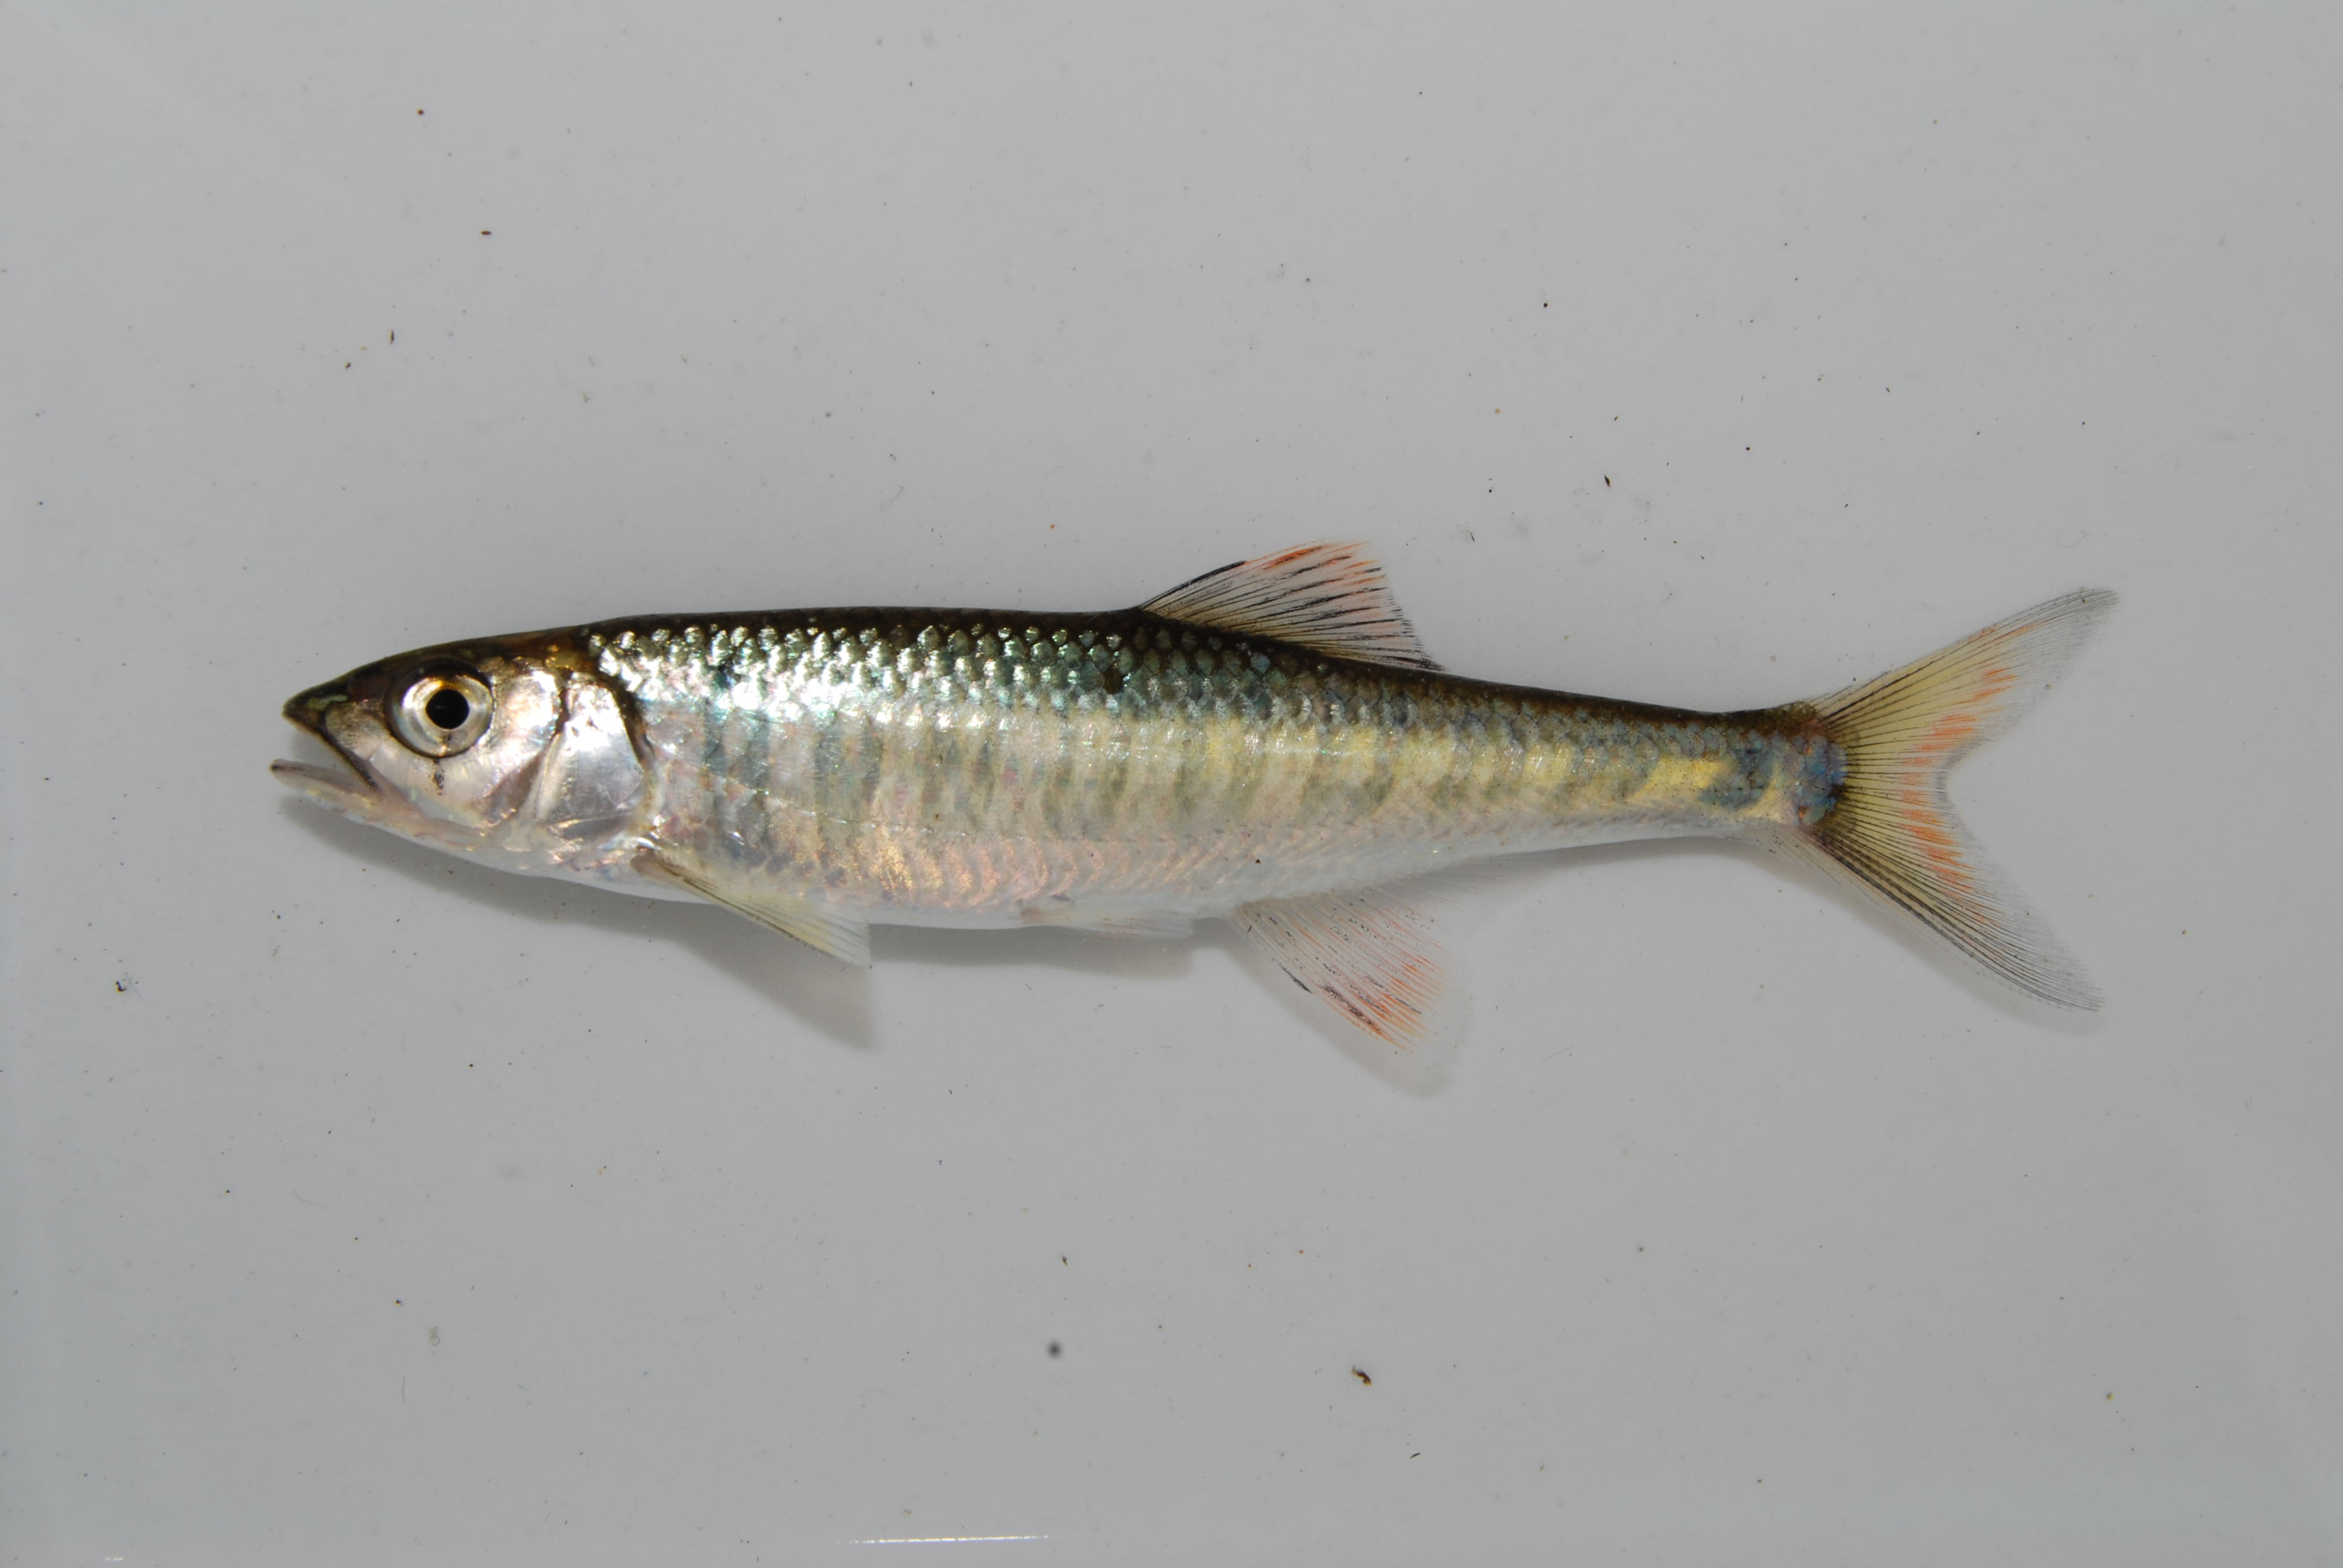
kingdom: Animalia
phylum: Chordata
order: Cypriniformes
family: Cyprinidae
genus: Opsaridium
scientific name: Opsaridium zambezense
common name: Barred minnow
